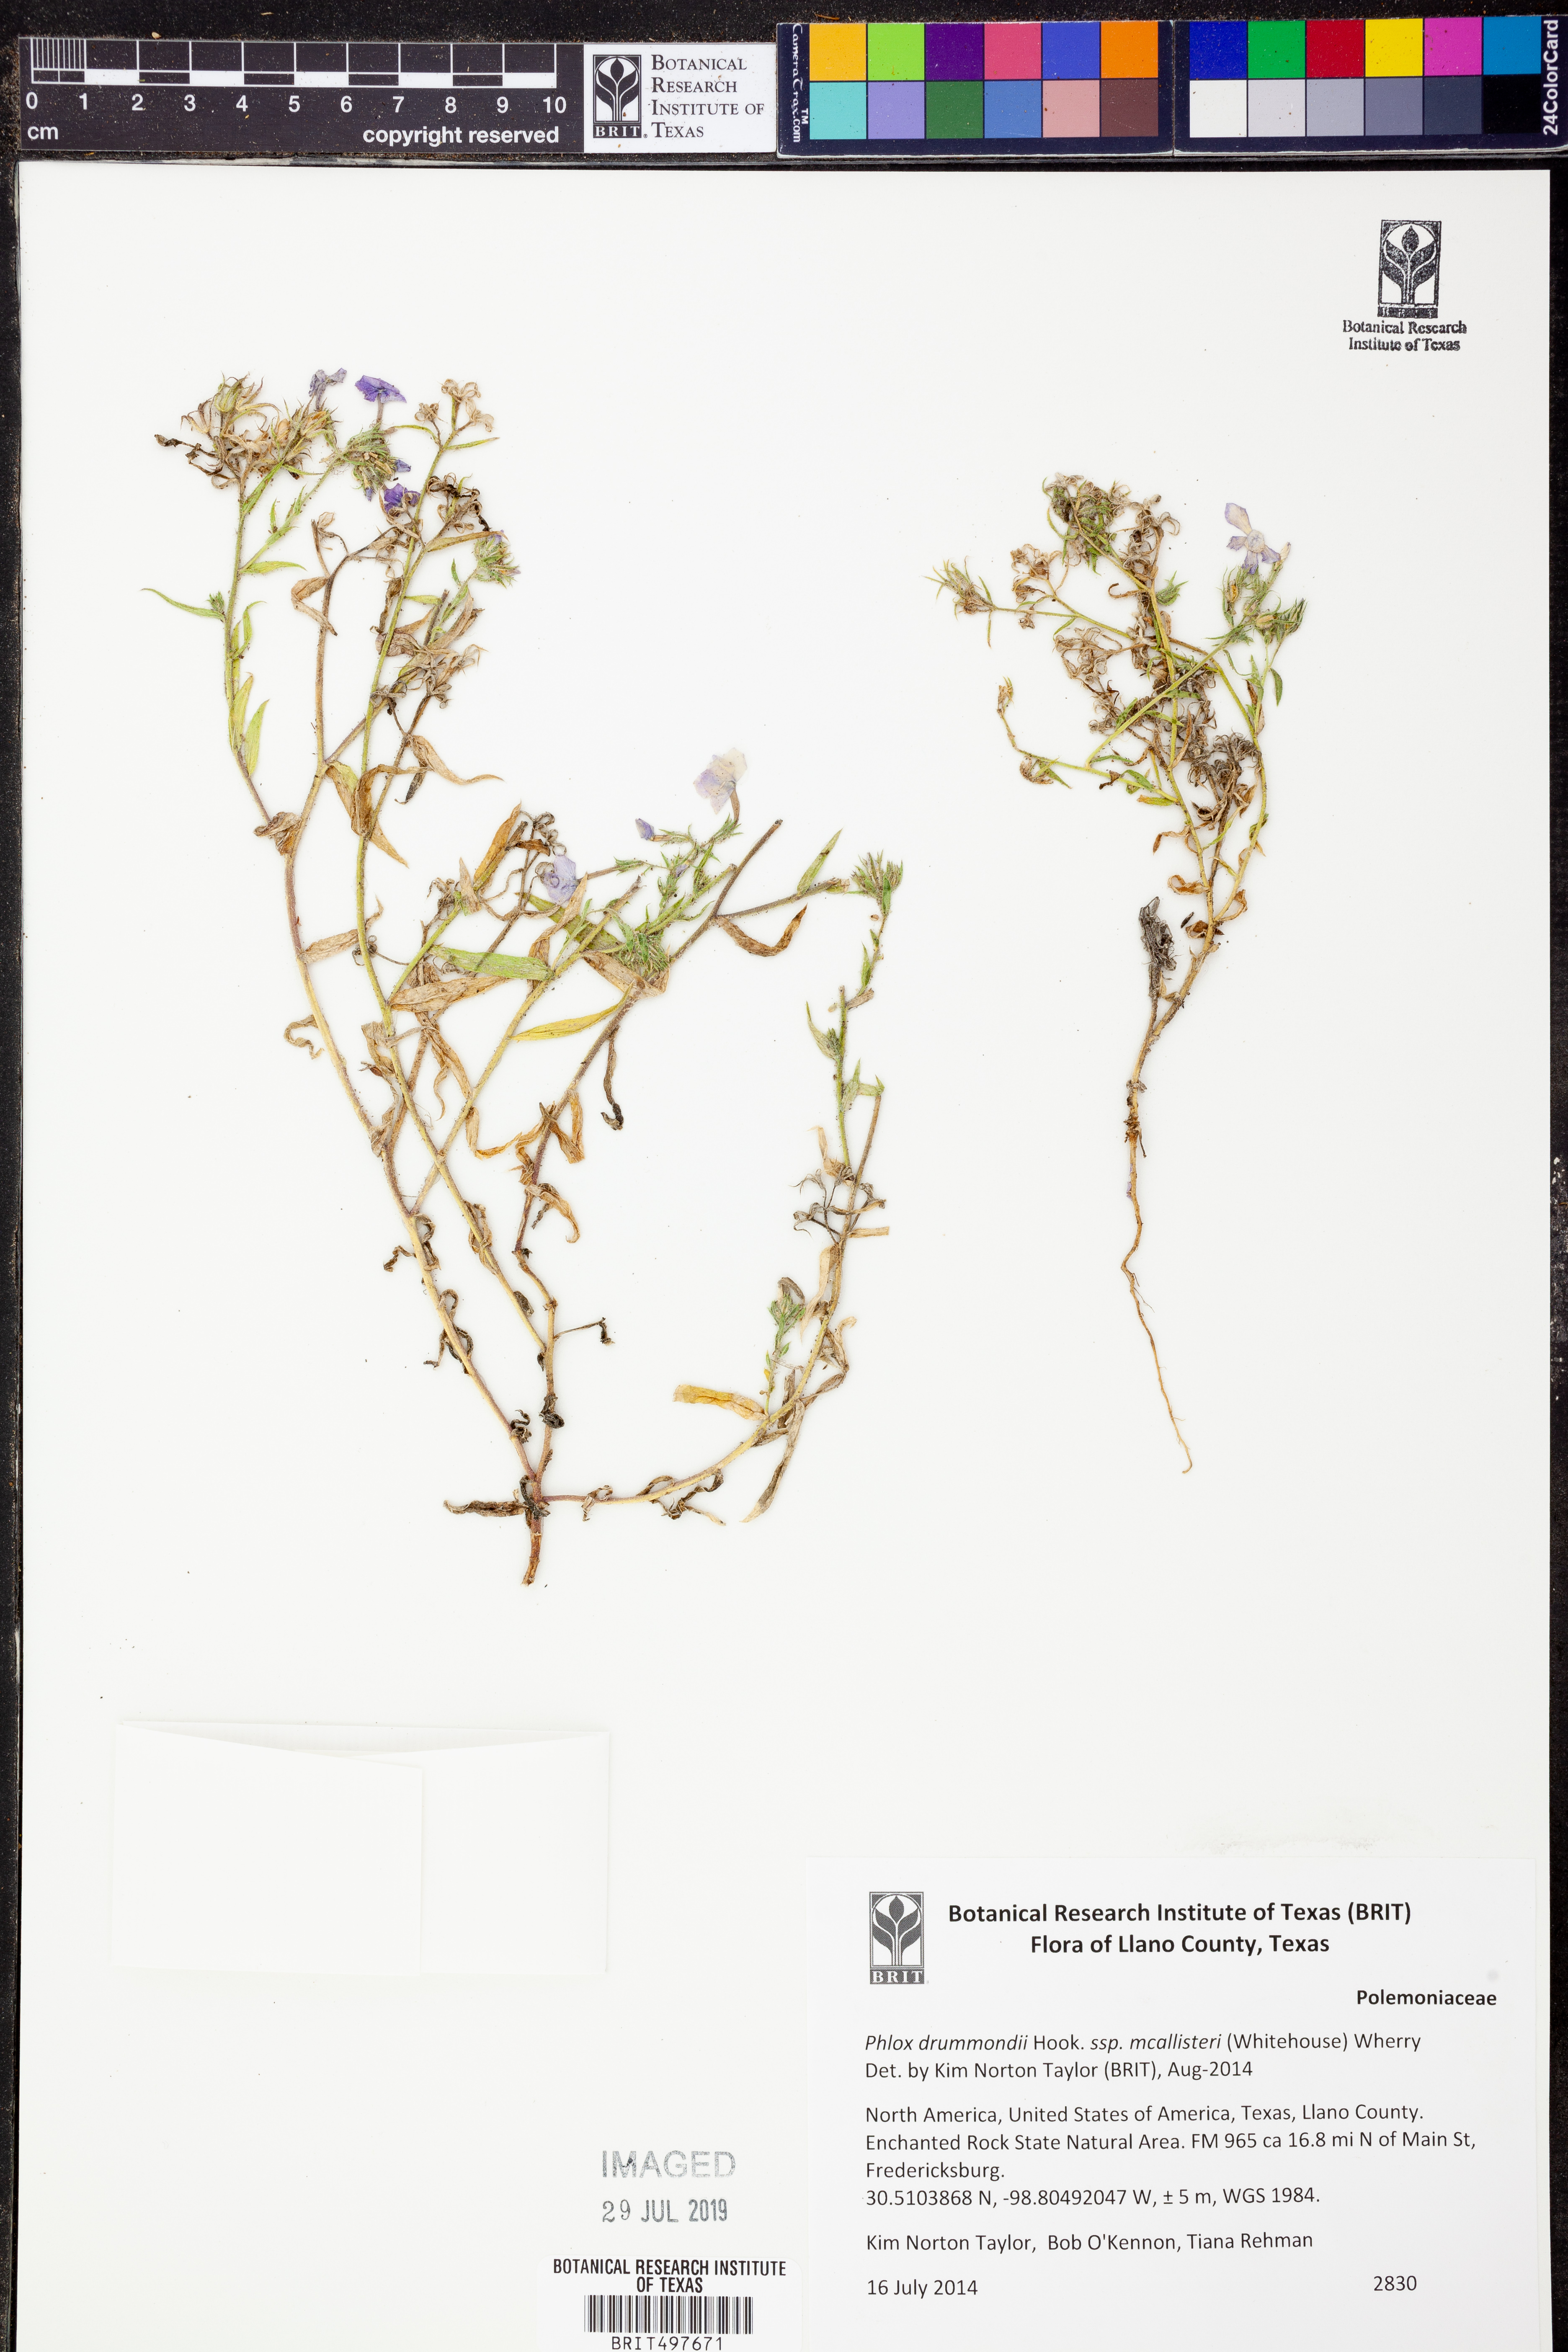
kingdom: Plantae
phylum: Tracheophyta
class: Magnoliopsida
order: Ericales
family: Polemoniaceae
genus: Phlox
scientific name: Phlox drummondii
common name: Drummond's phlox
